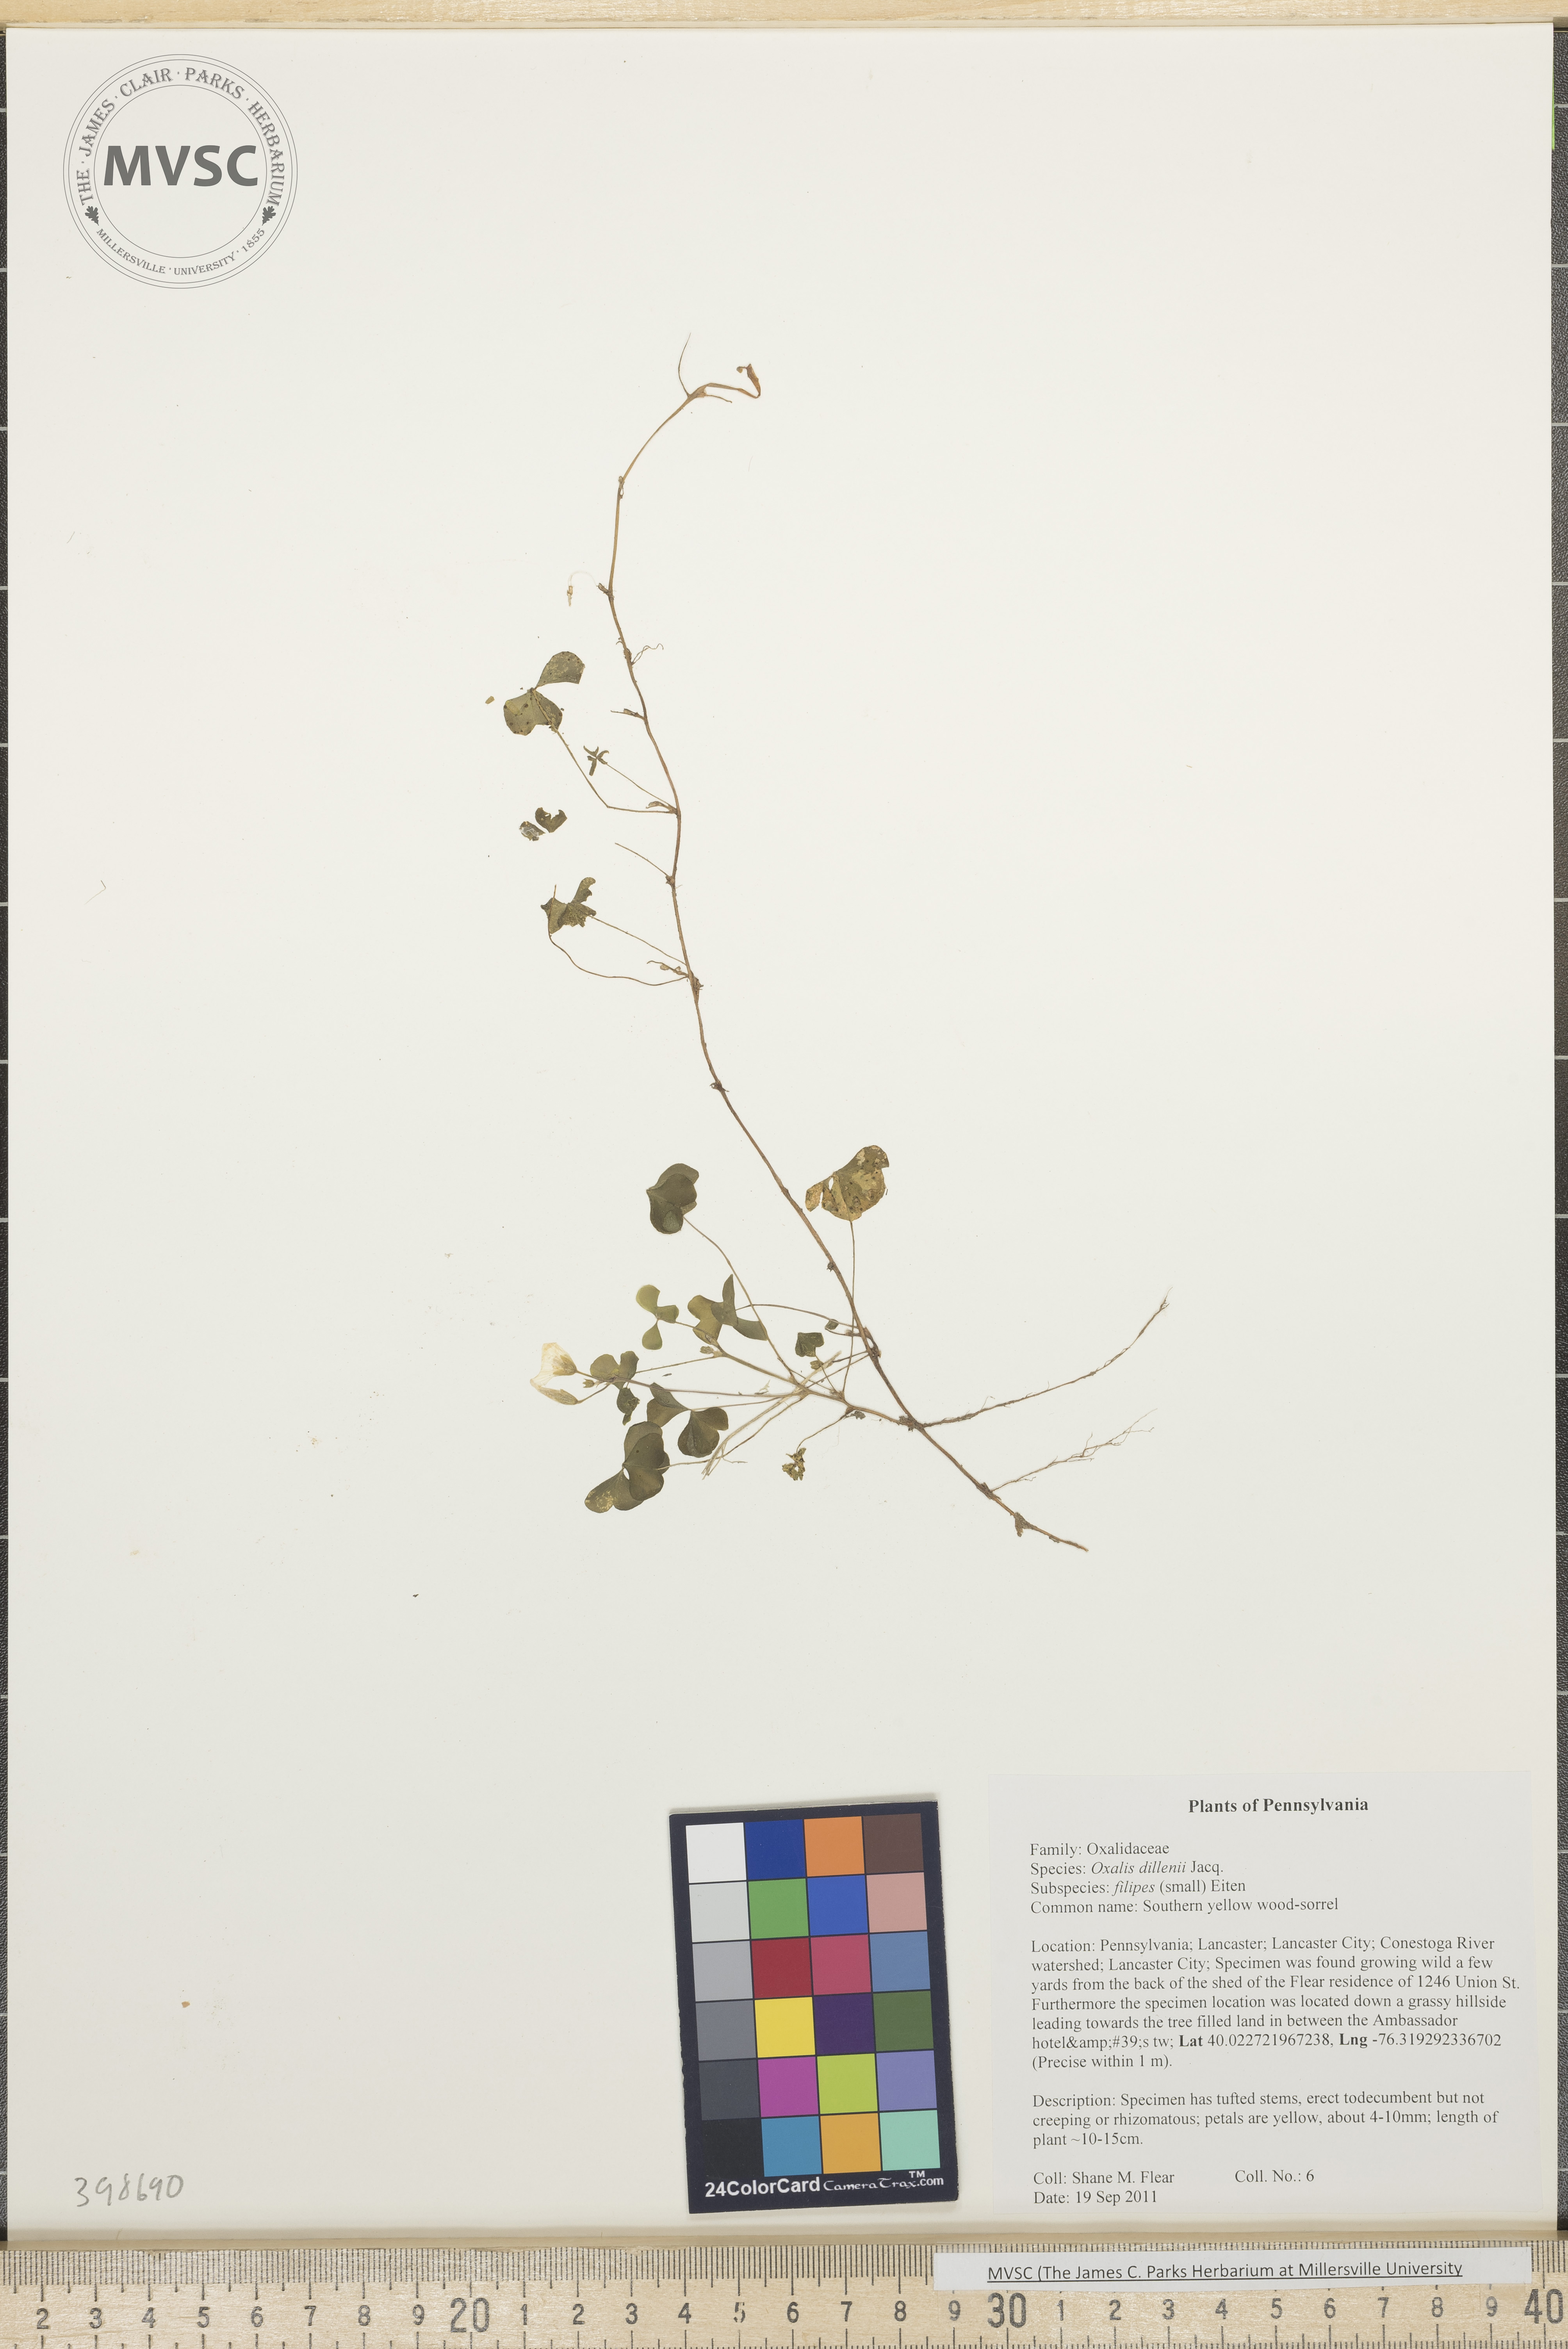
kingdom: Plantae
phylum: Tracheophyta
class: Magnoliopsida
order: Oxalidales
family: Oxalidaceae
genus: Oxalis
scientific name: Oxalis dillenii
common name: Creeping yellow wood-sorrel
